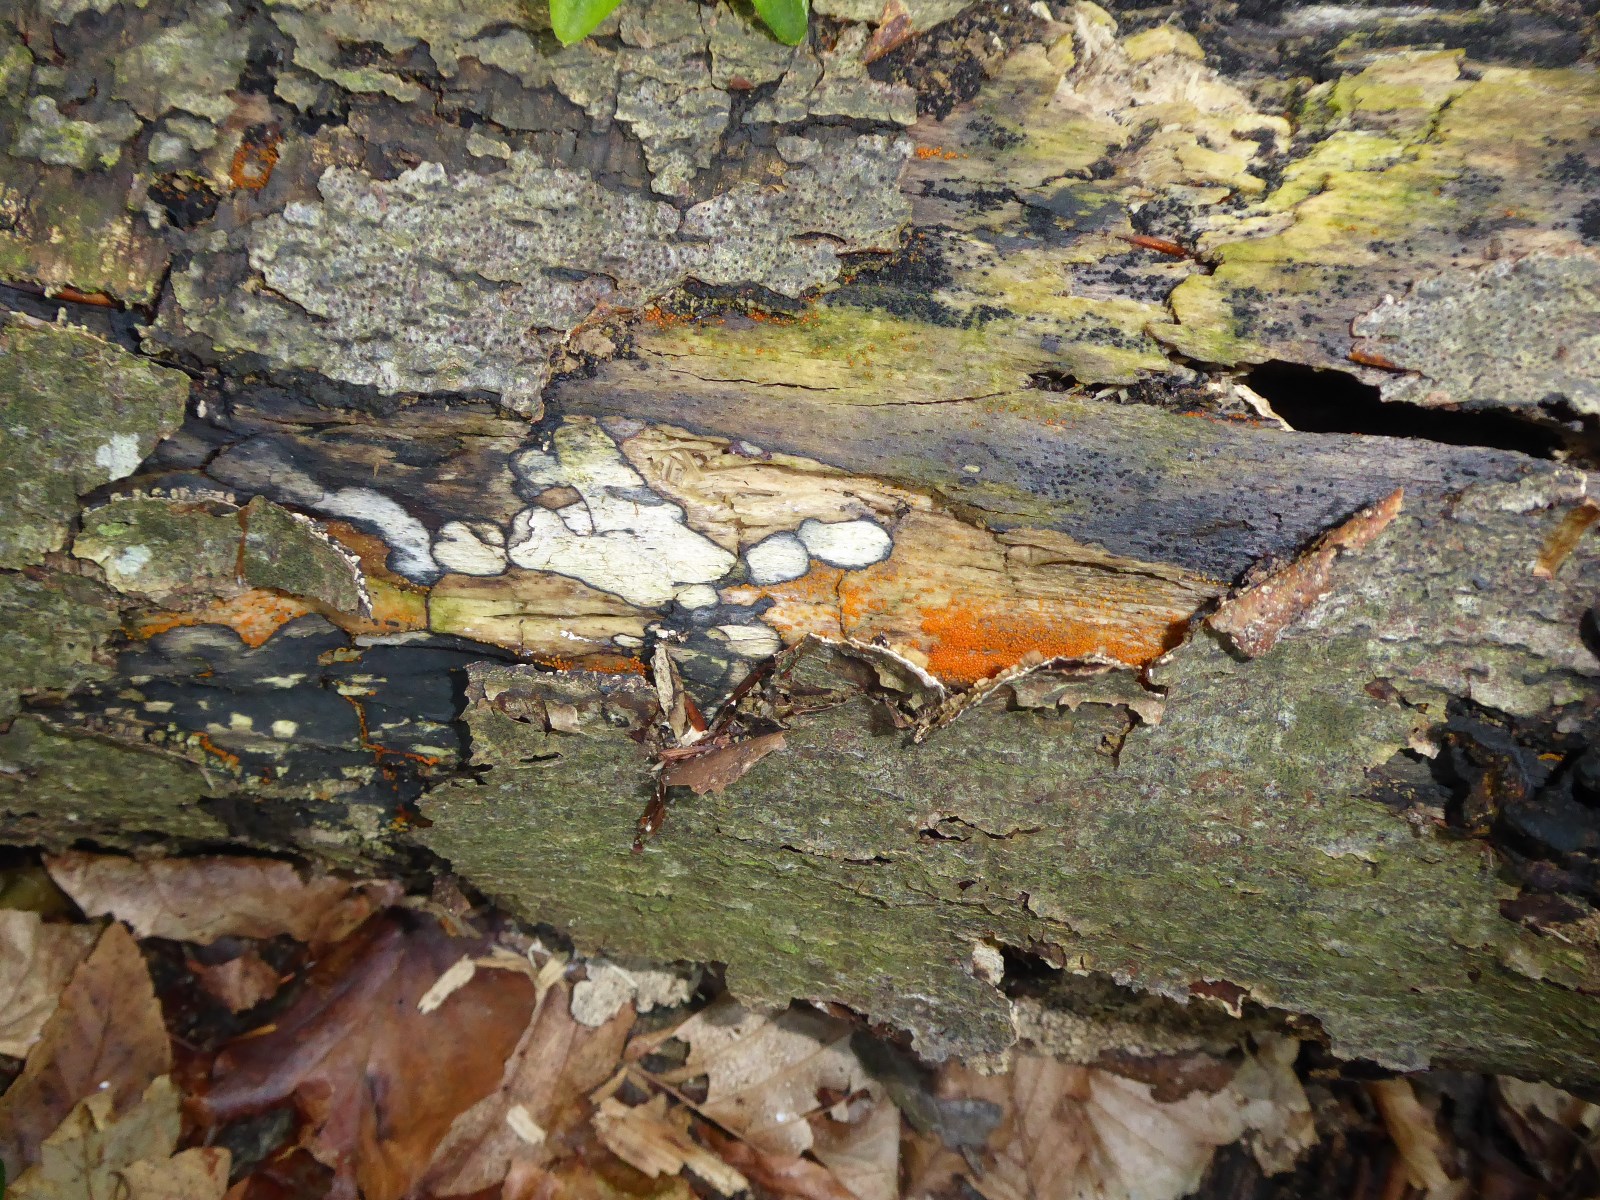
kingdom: Fungi
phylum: Ascomycota
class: Sordariomycetes
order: Hypocreales
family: Nectriaceae
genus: Hydropisphaera
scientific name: Hydropisphaera peziza
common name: skålformet gyldenkerne
